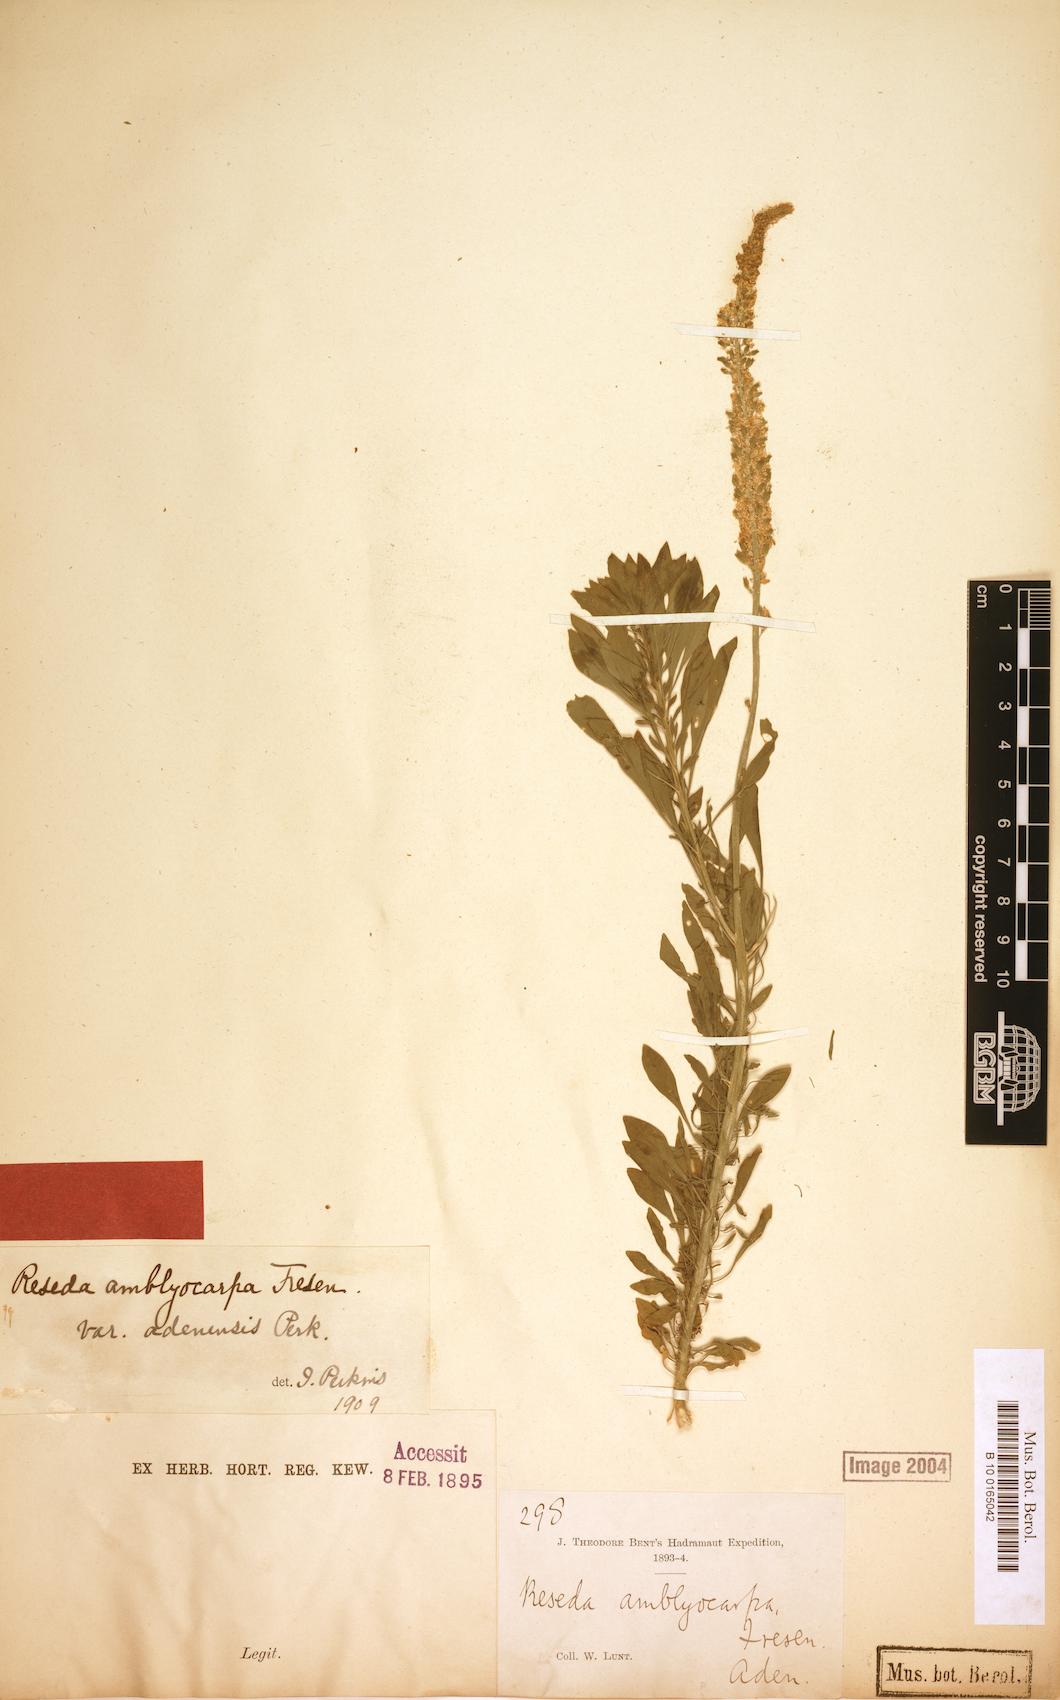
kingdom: Plantae
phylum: Tracheophyta
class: Magnoliopsida
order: Brassicales
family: Resedaceae
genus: Reseda
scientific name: Reseda amblyocarpa
